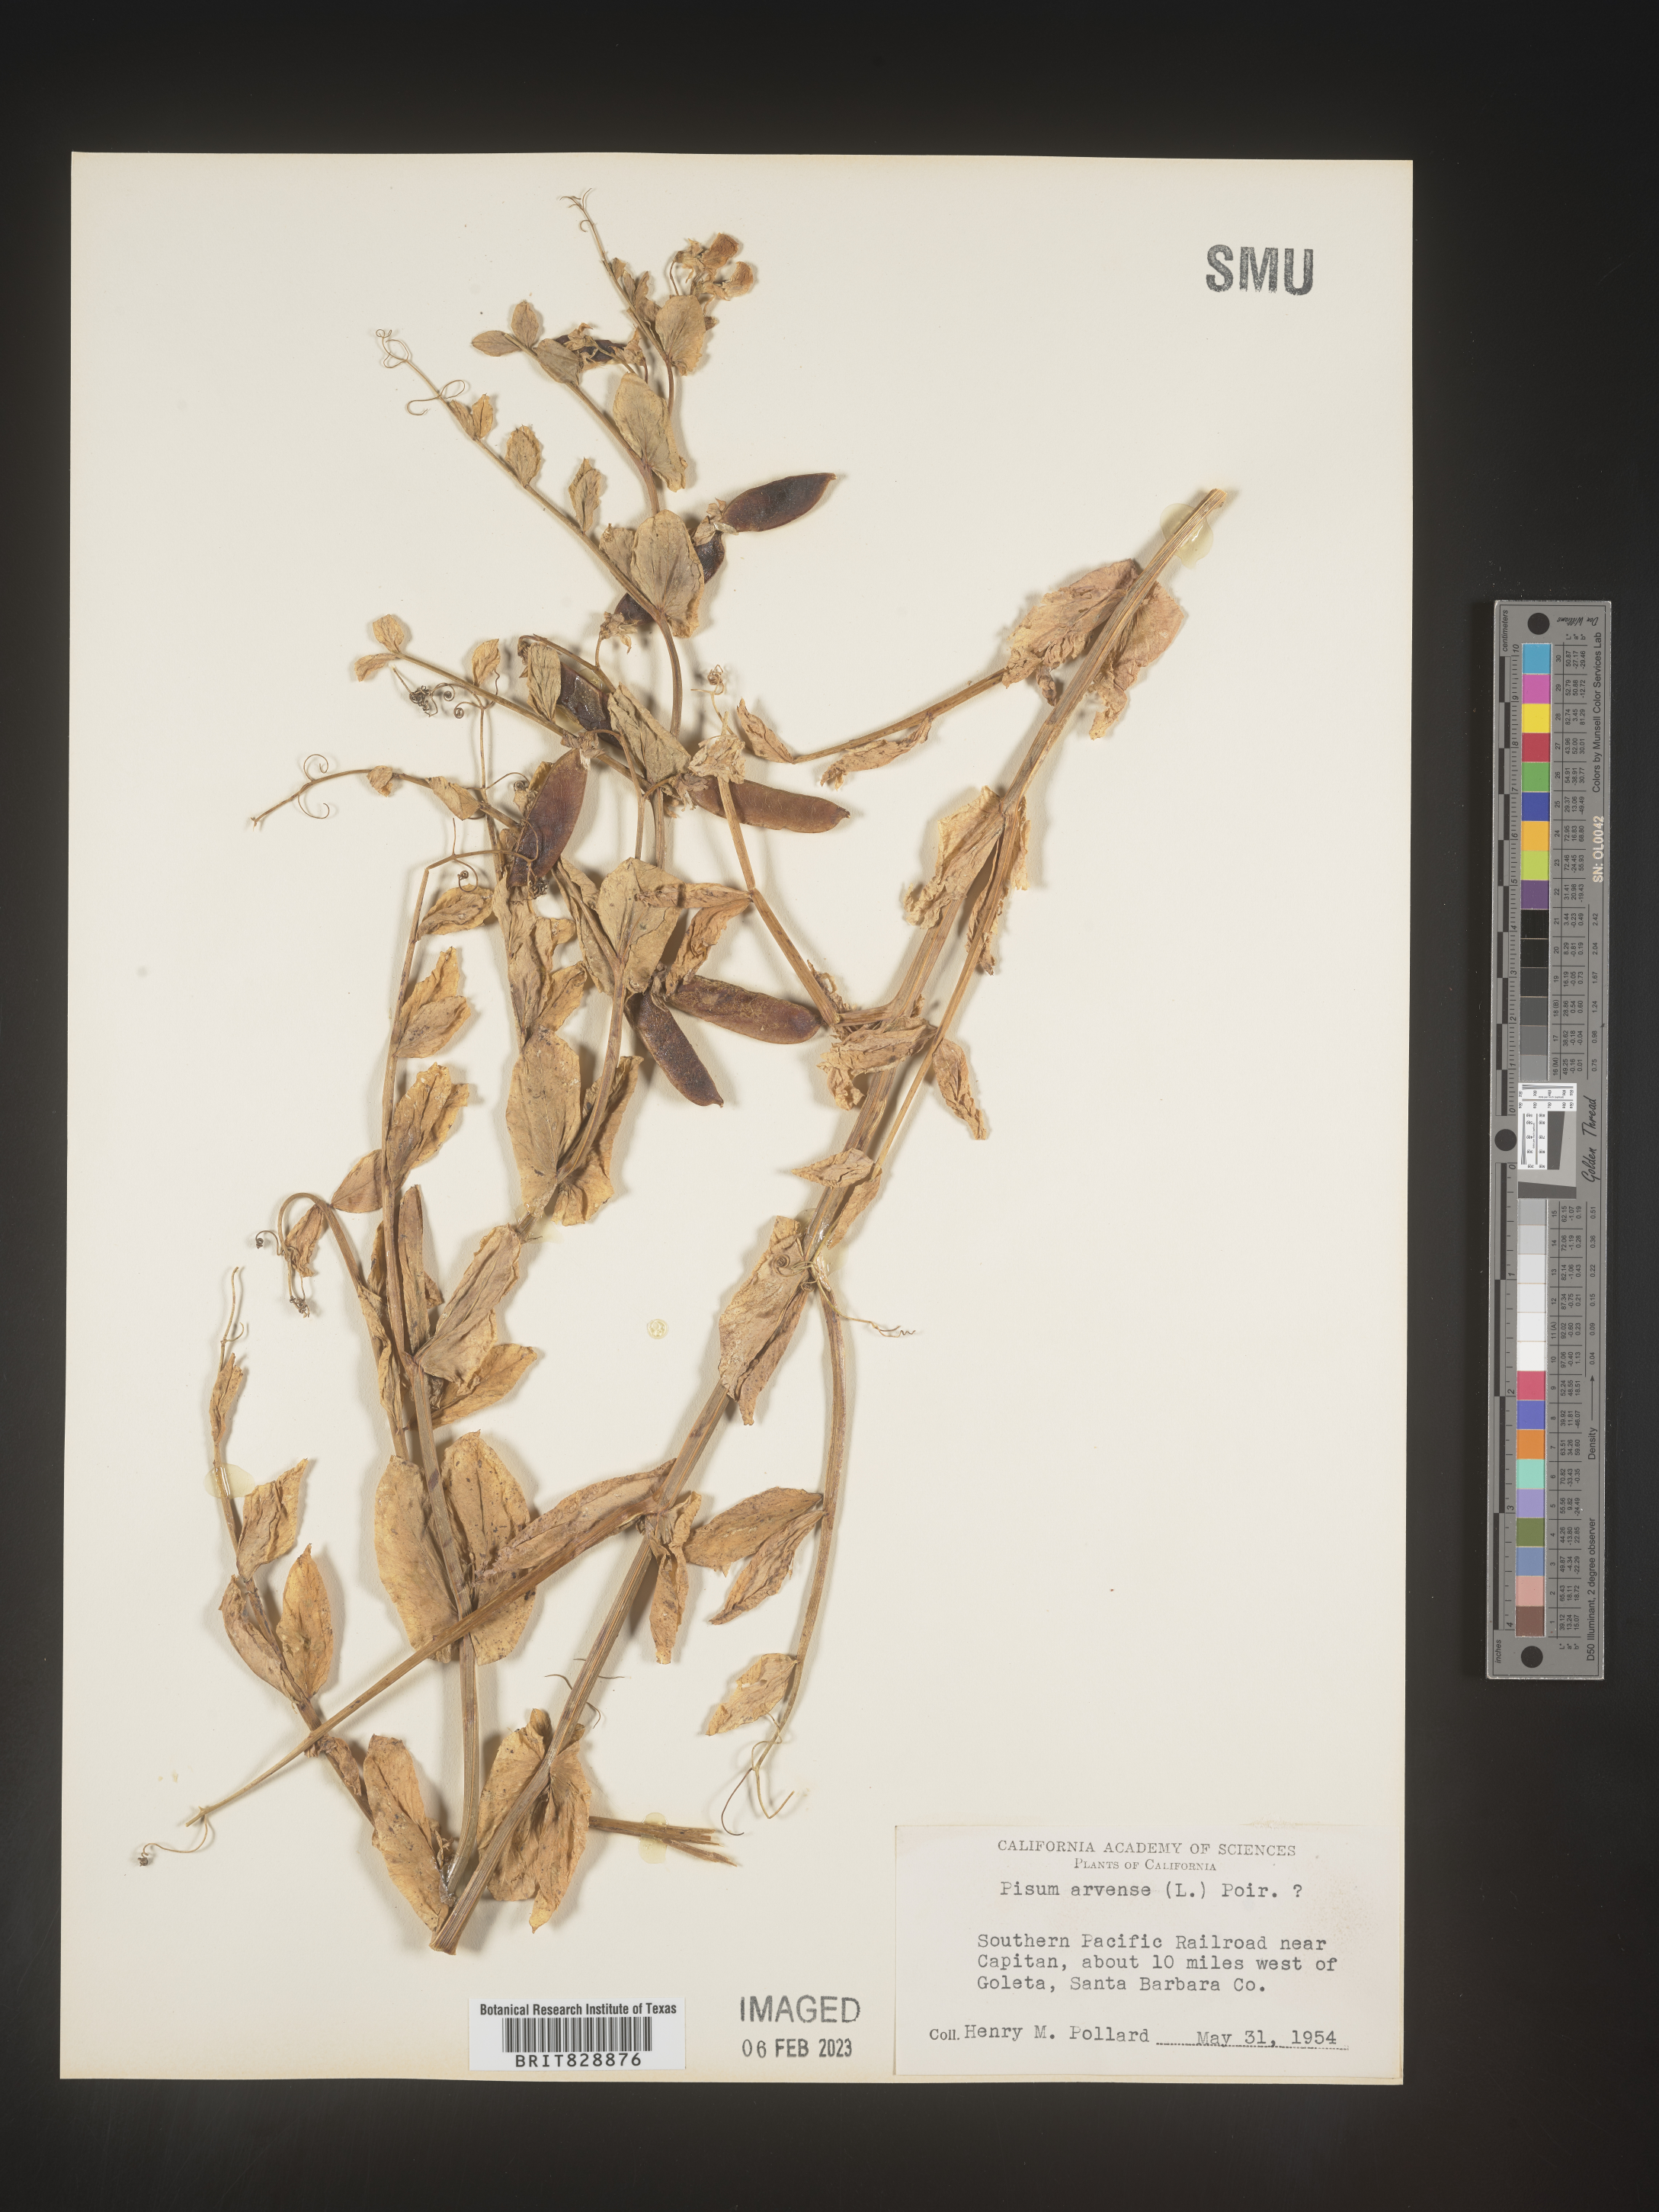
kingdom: Animalia
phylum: Mollusca
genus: Pisum
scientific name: Pisum
